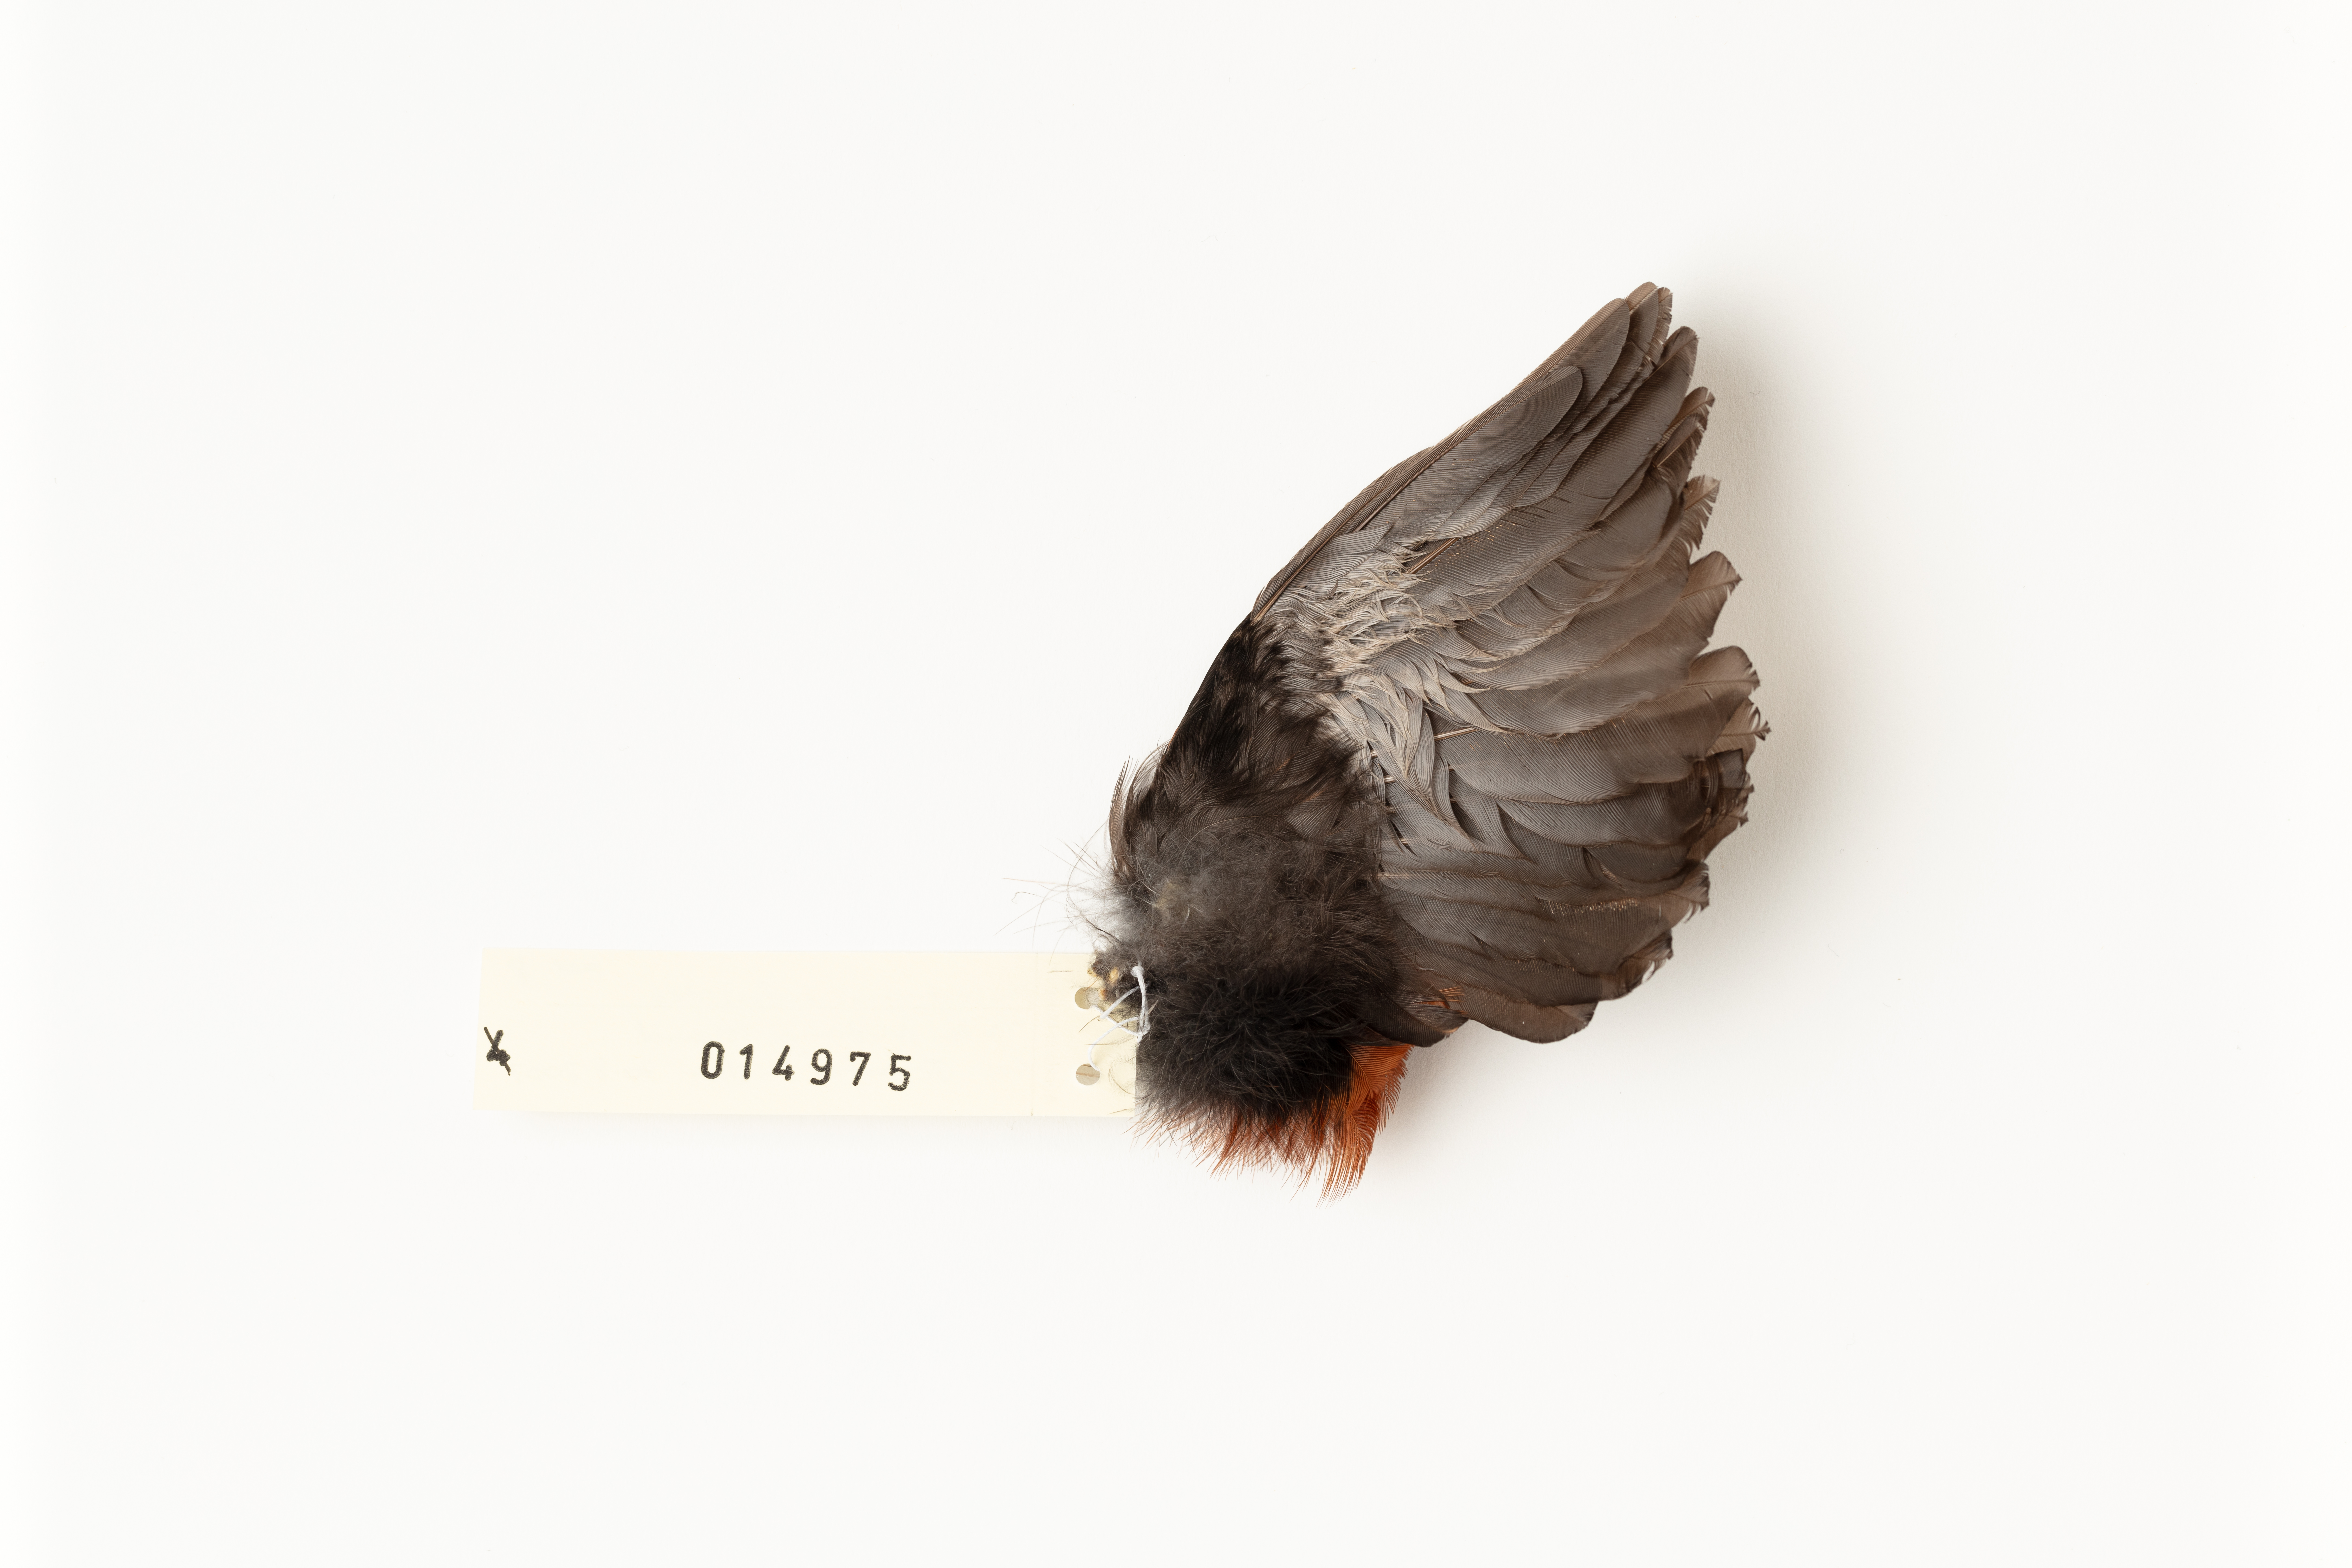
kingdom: Animalia
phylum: Chordata
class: Aves
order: Passeriformes
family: Callaeatidae
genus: Philesturnus
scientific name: Philesturnus carunculatus
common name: South island saddleback
